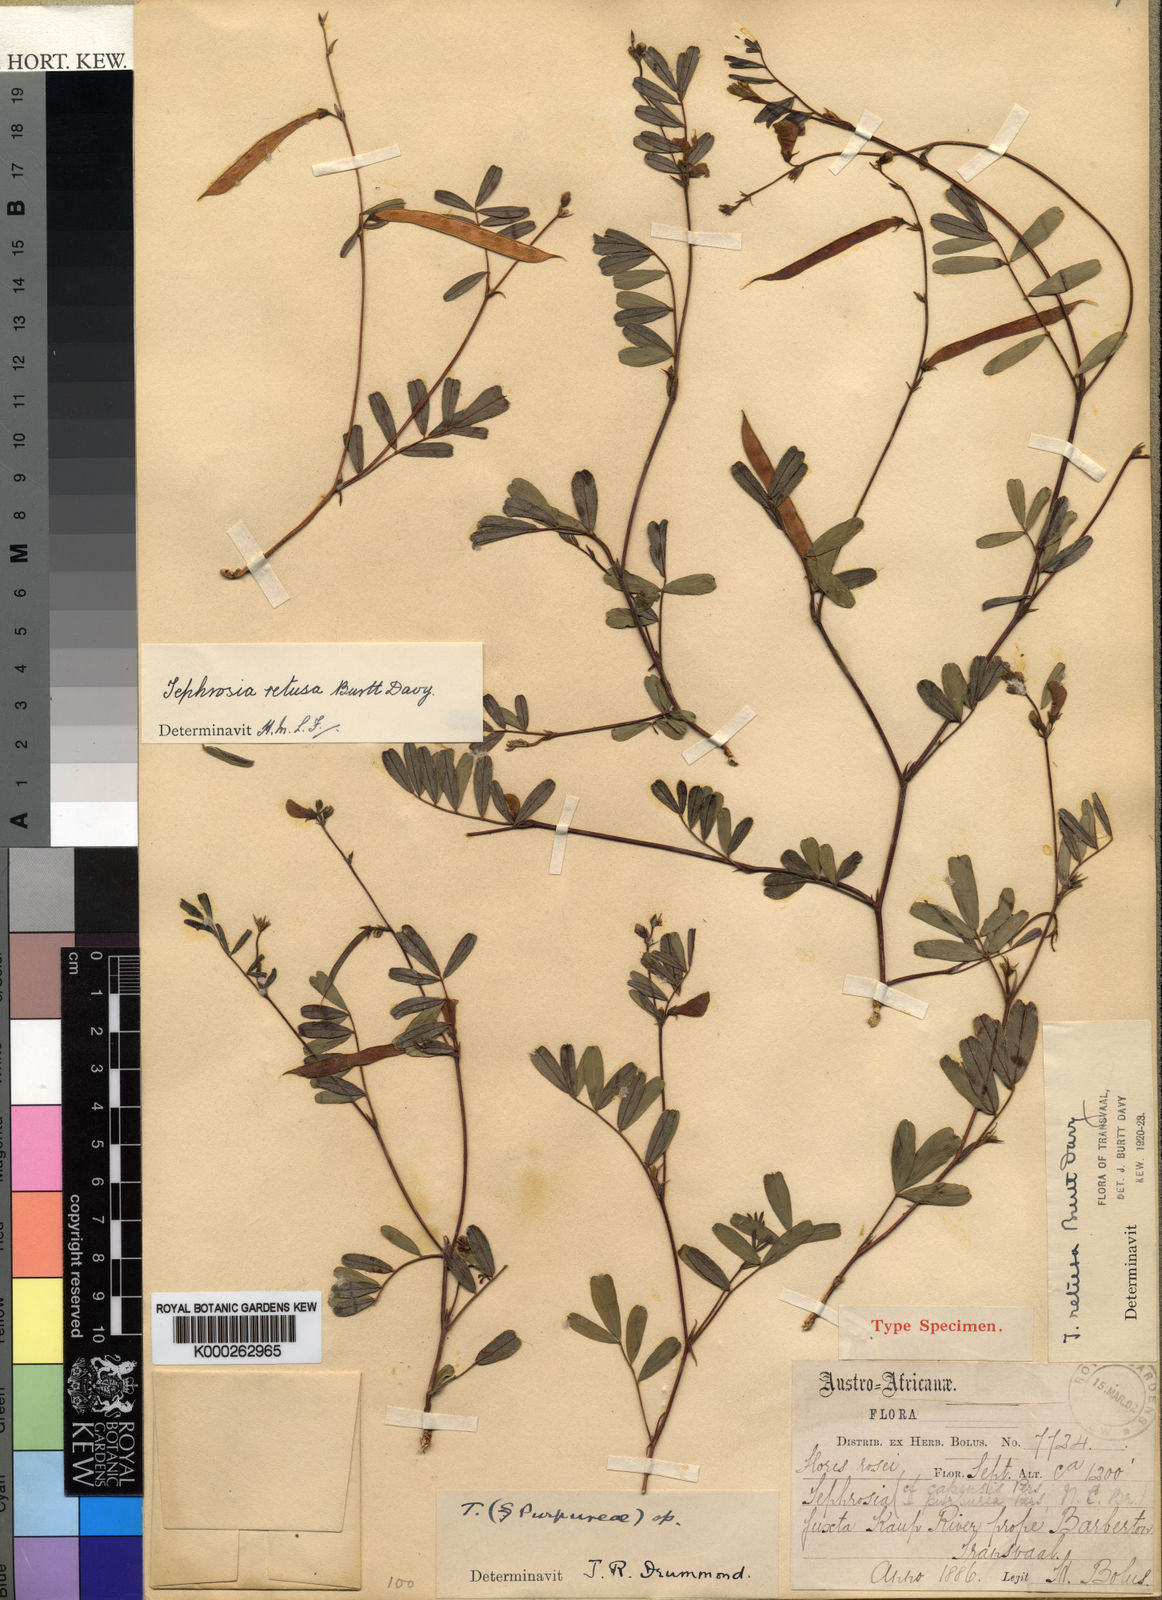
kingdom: Plantae
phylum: Tracheophyta
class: Magnoliopsida
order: Fabales
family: Fabaceae
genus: Tephrosia
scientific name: Tephrosia retusa
